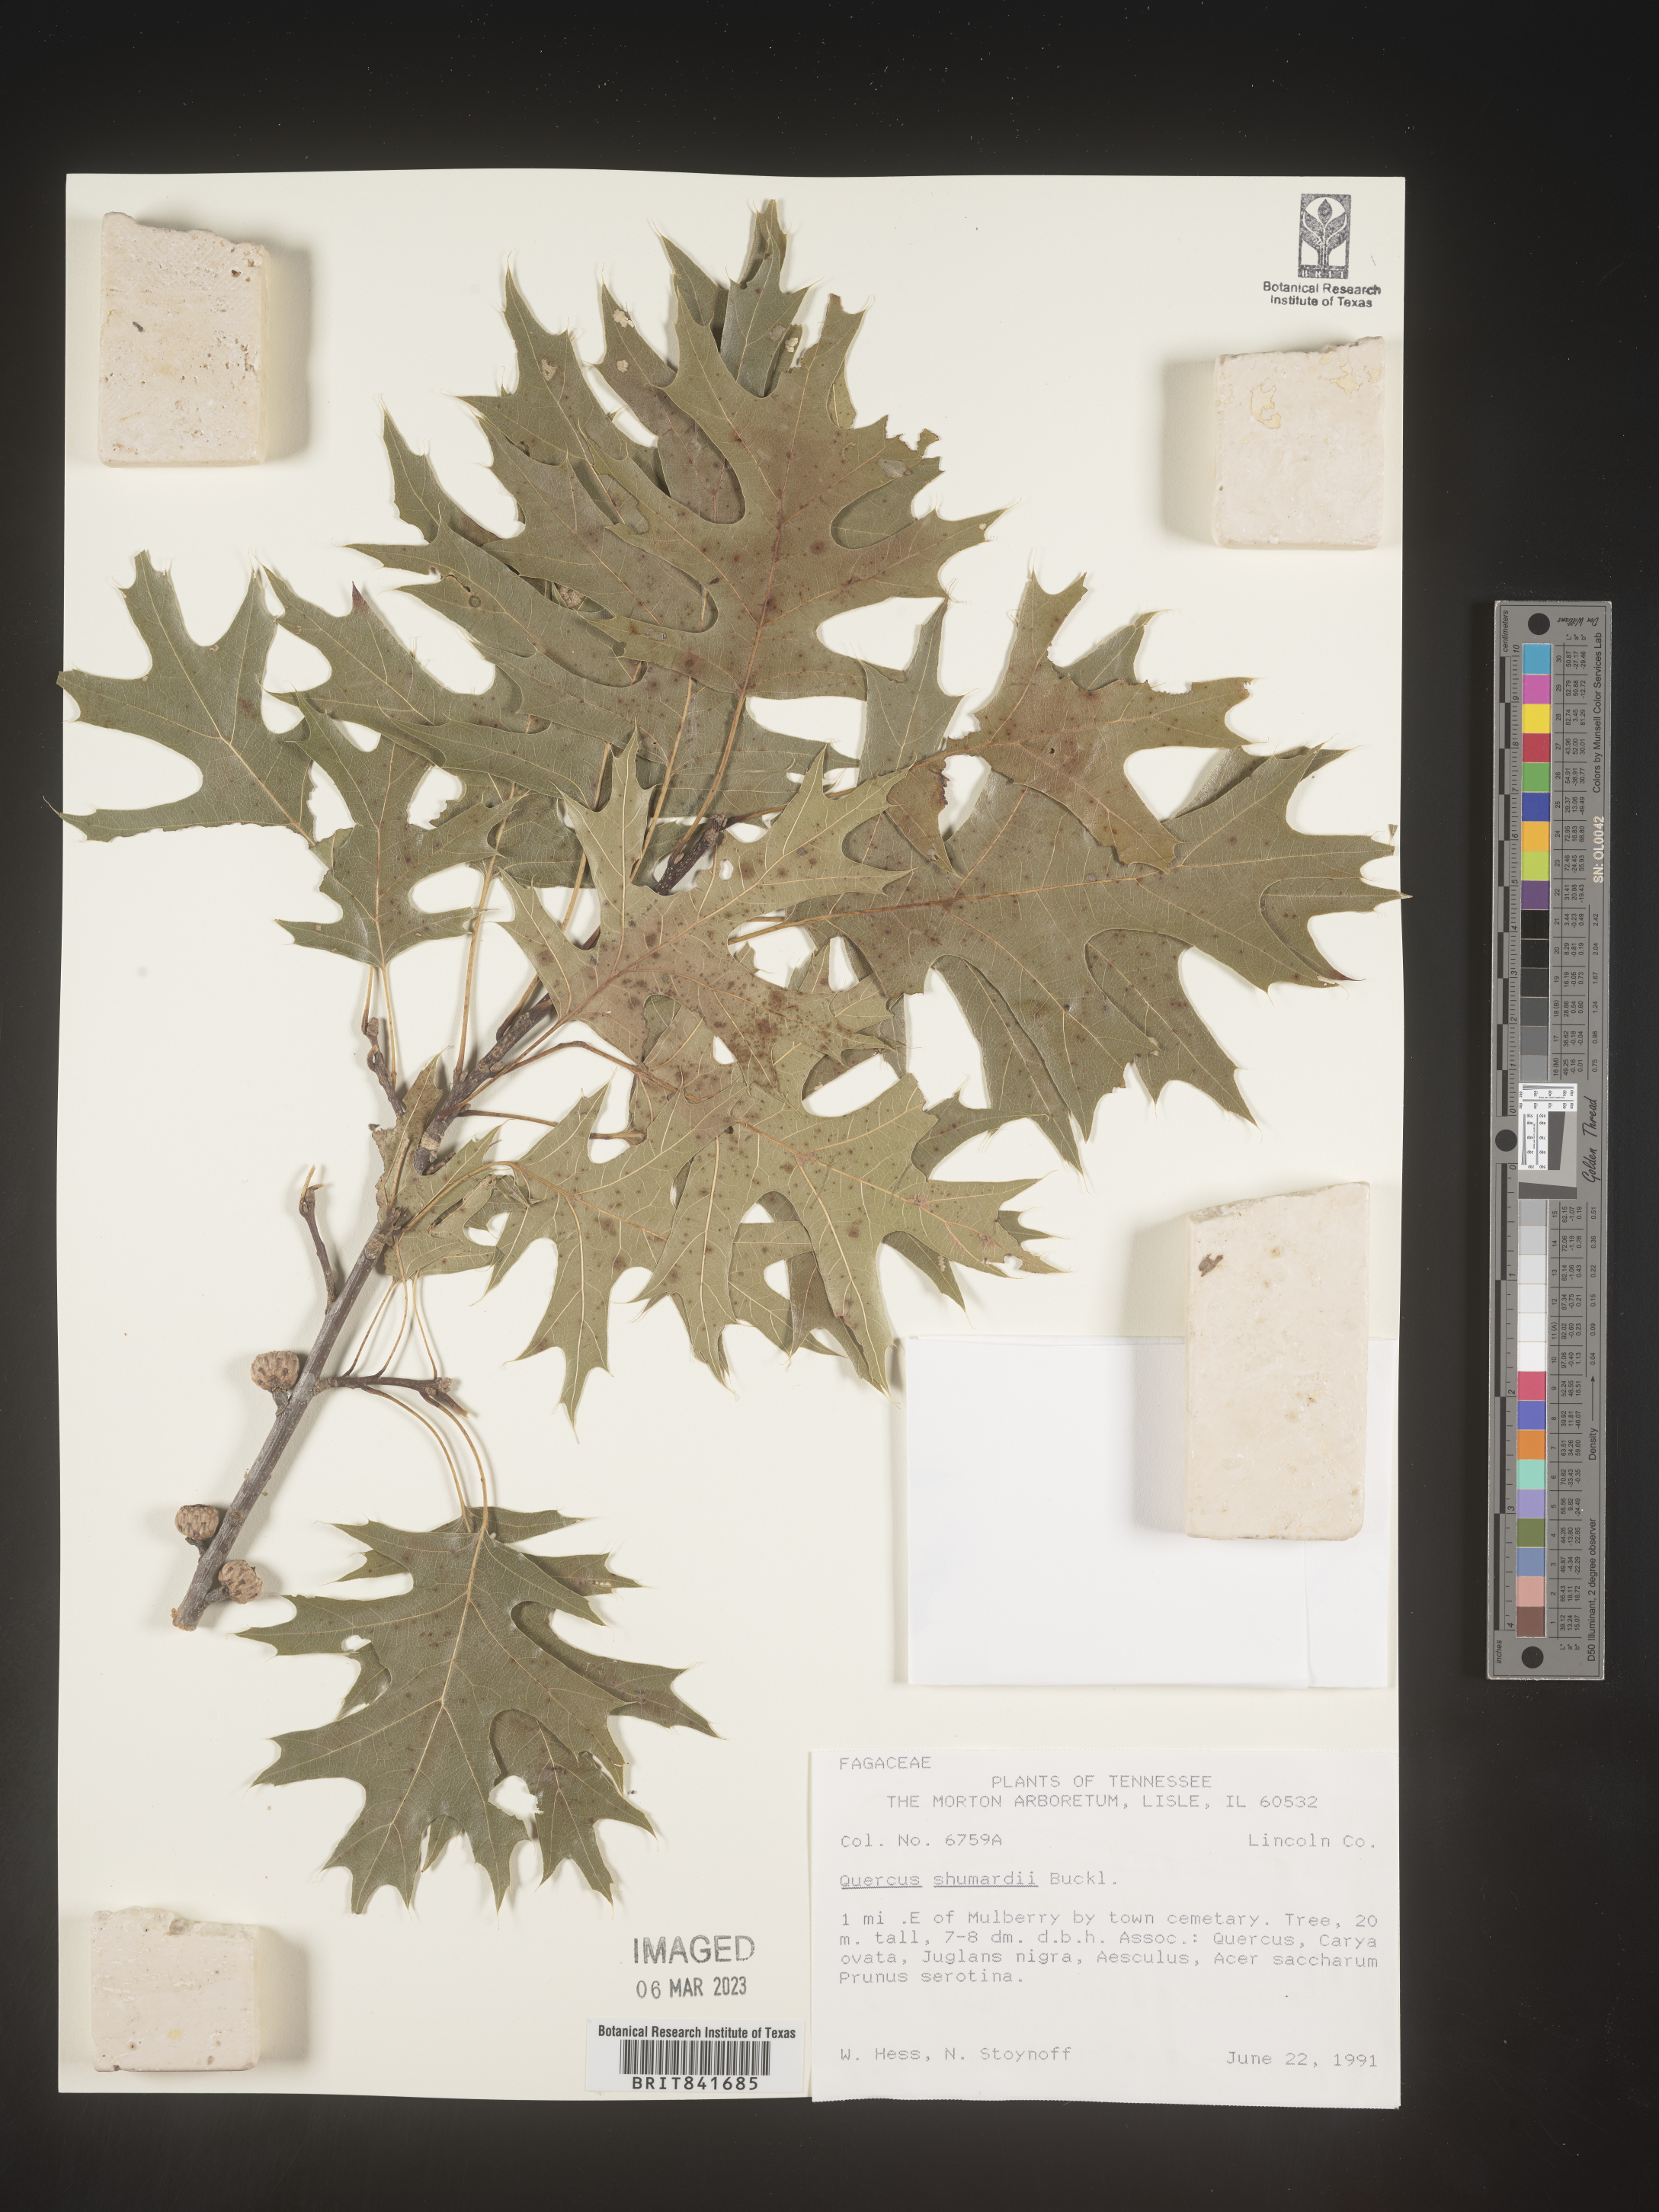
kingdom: Plantae
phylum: Tracheophyta
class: Magnoliopsida
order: Fagales
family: Fagaceae
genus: Quercus
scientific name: Quercus shumardii
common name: Shumard oak
